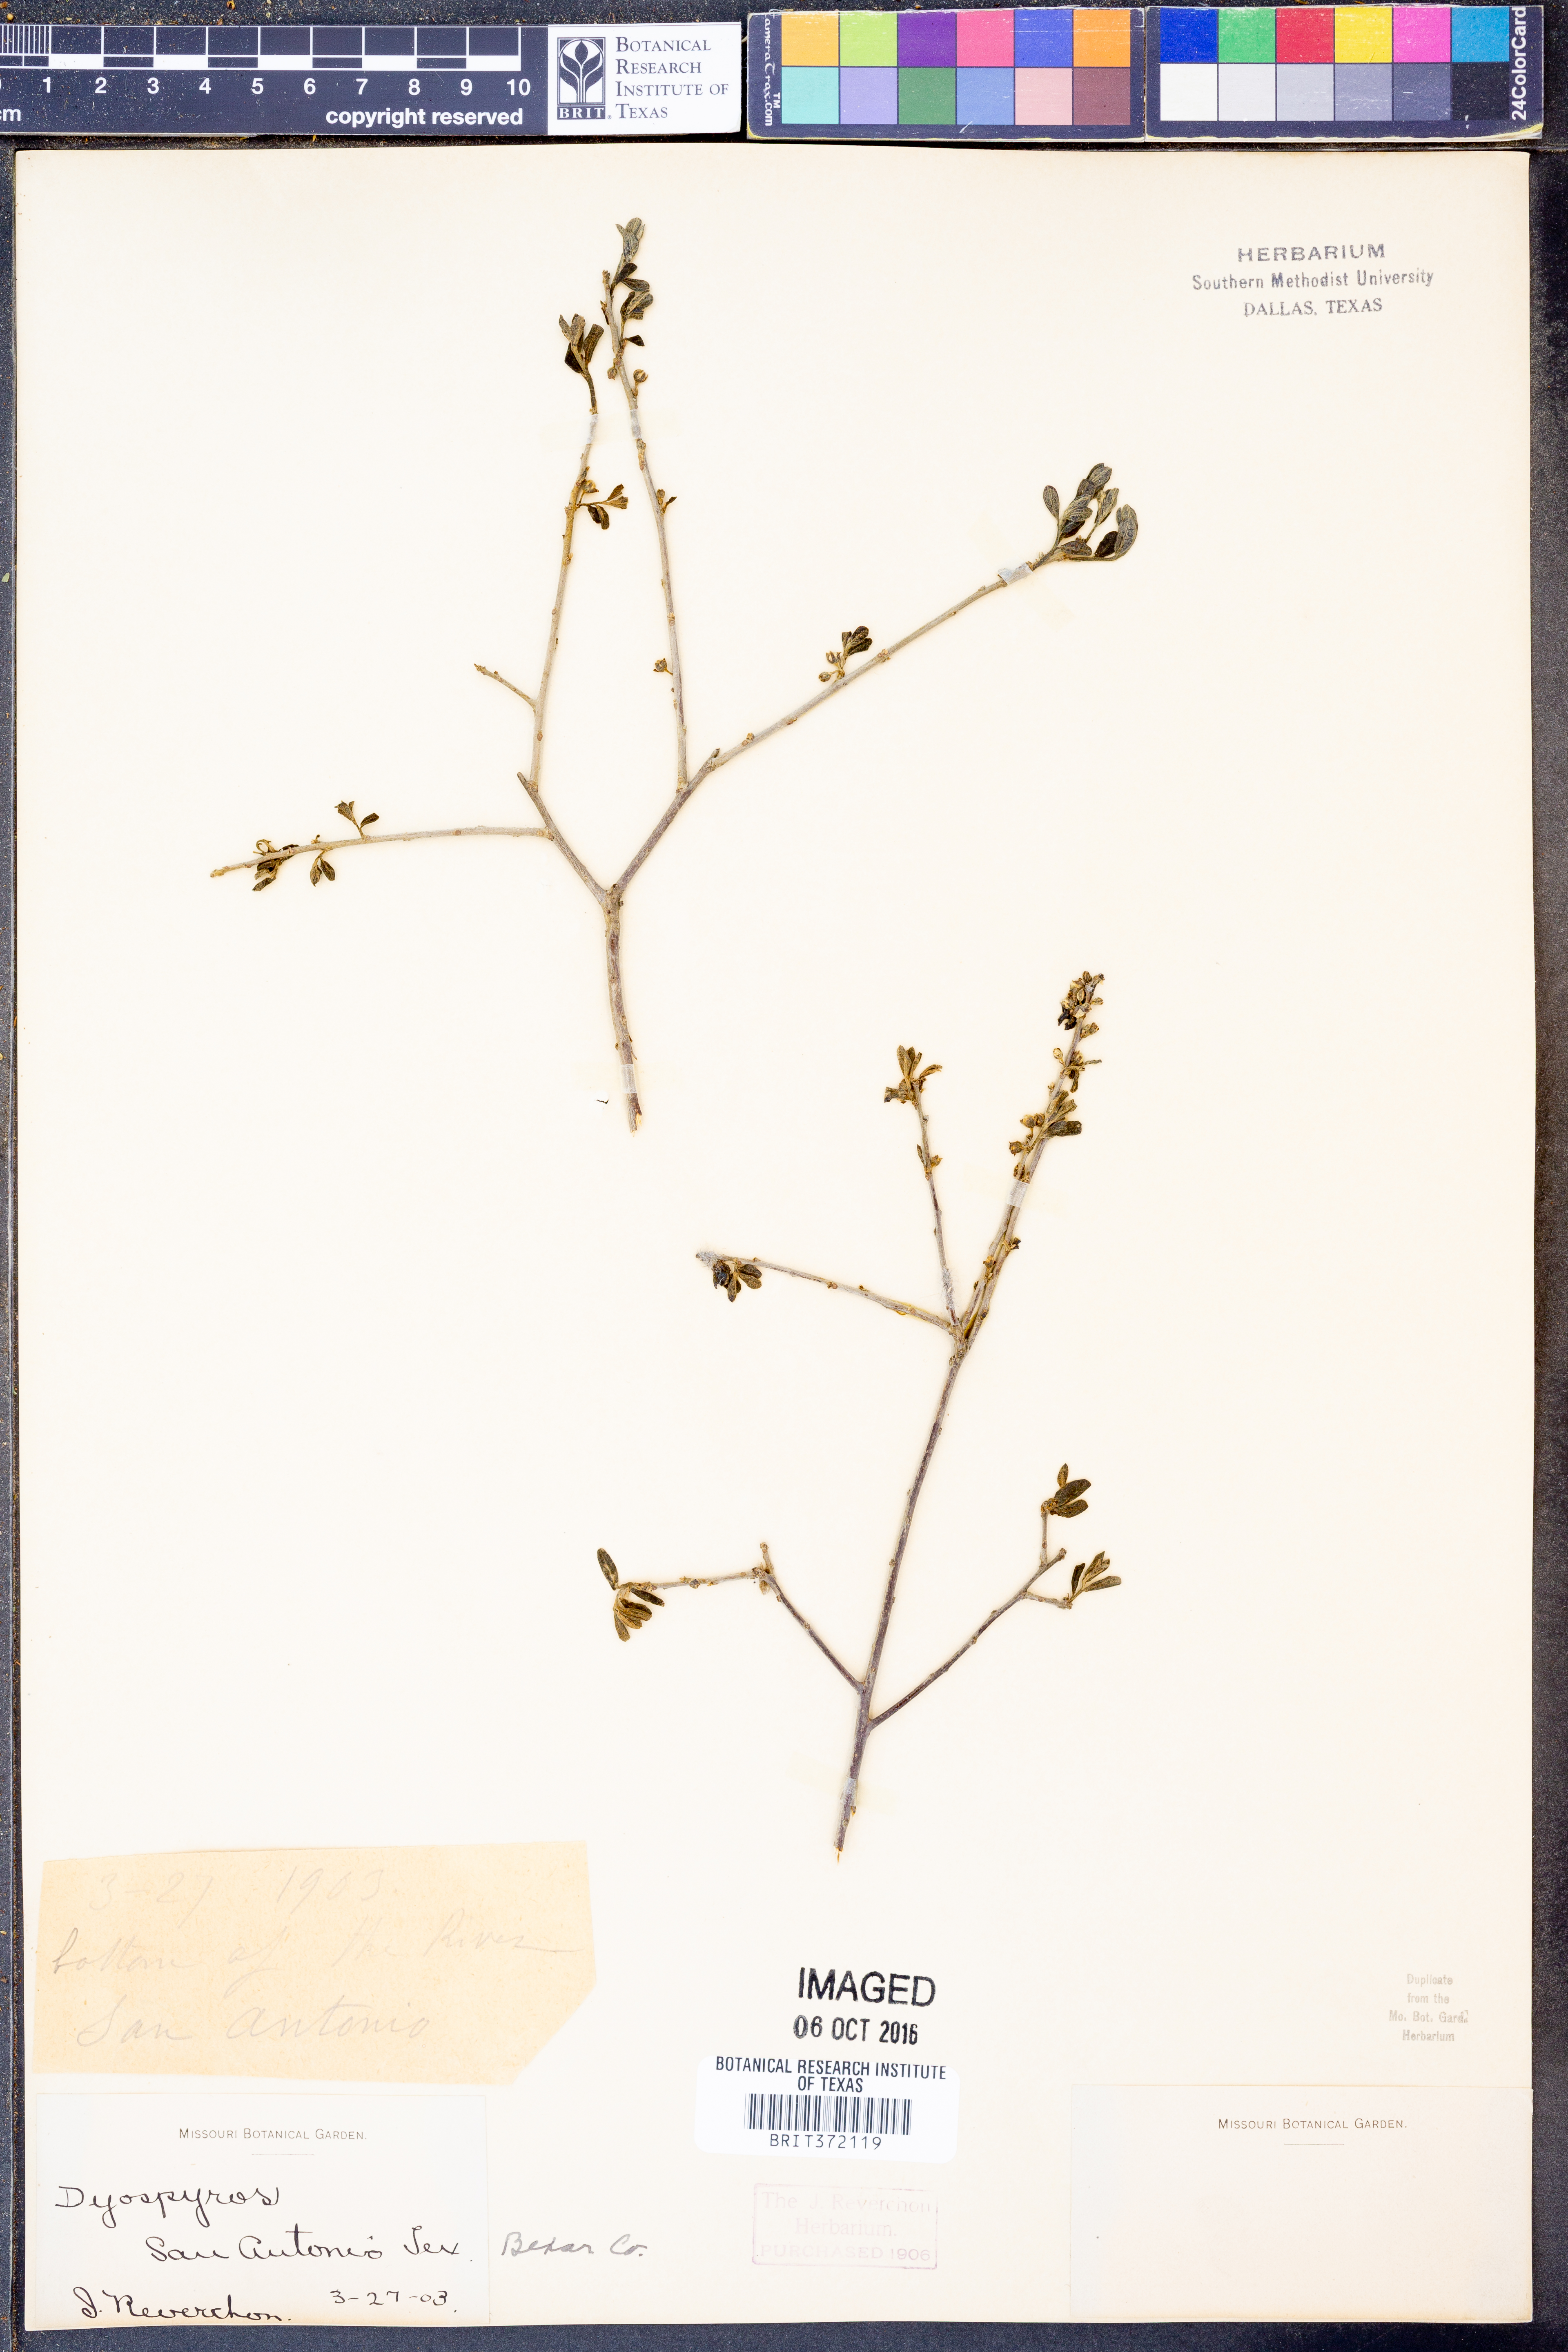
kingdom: Plantae
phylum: Tracheophyta
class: Magnoliopsida
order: Ericales
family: Ebenaceae
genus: Diospyros
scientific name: Diospyros
